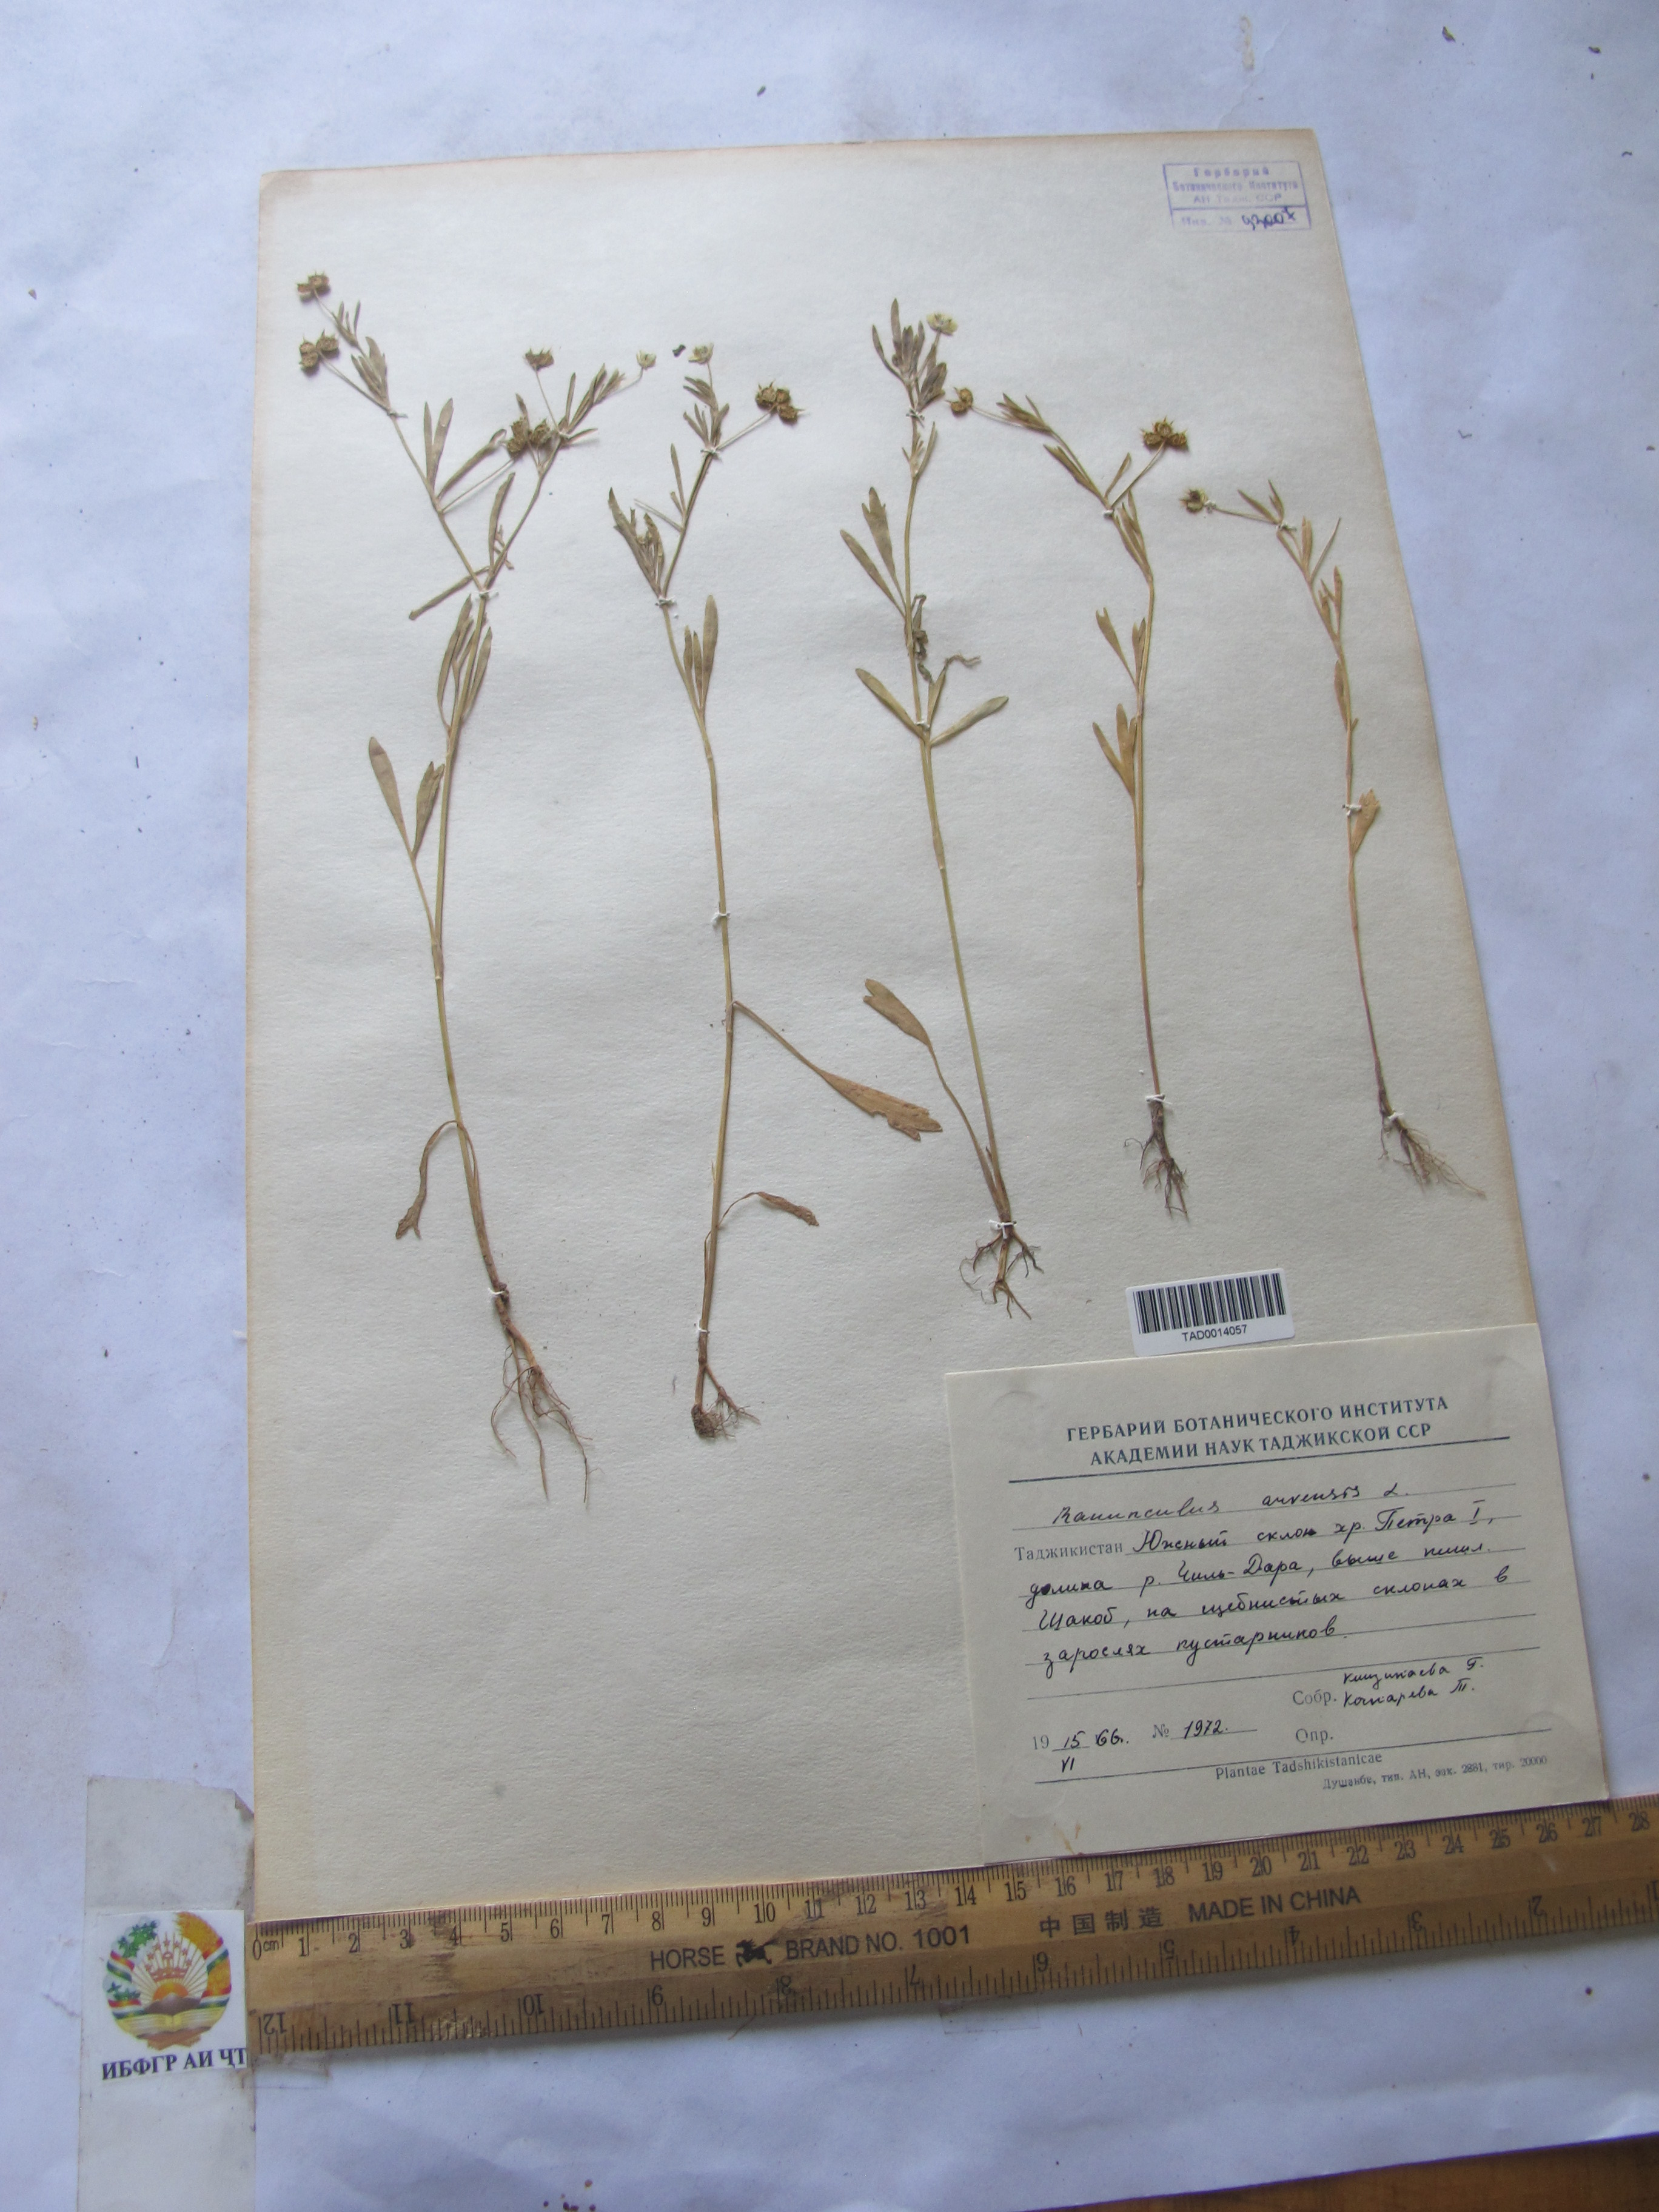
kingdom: Plantae
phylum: Tracheophyta
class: Magnoliopsida
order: Ranunculales
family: Ranunculaceae
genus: Ranunculus
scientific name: Ranunculus arvensis
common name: Corn buttercup
